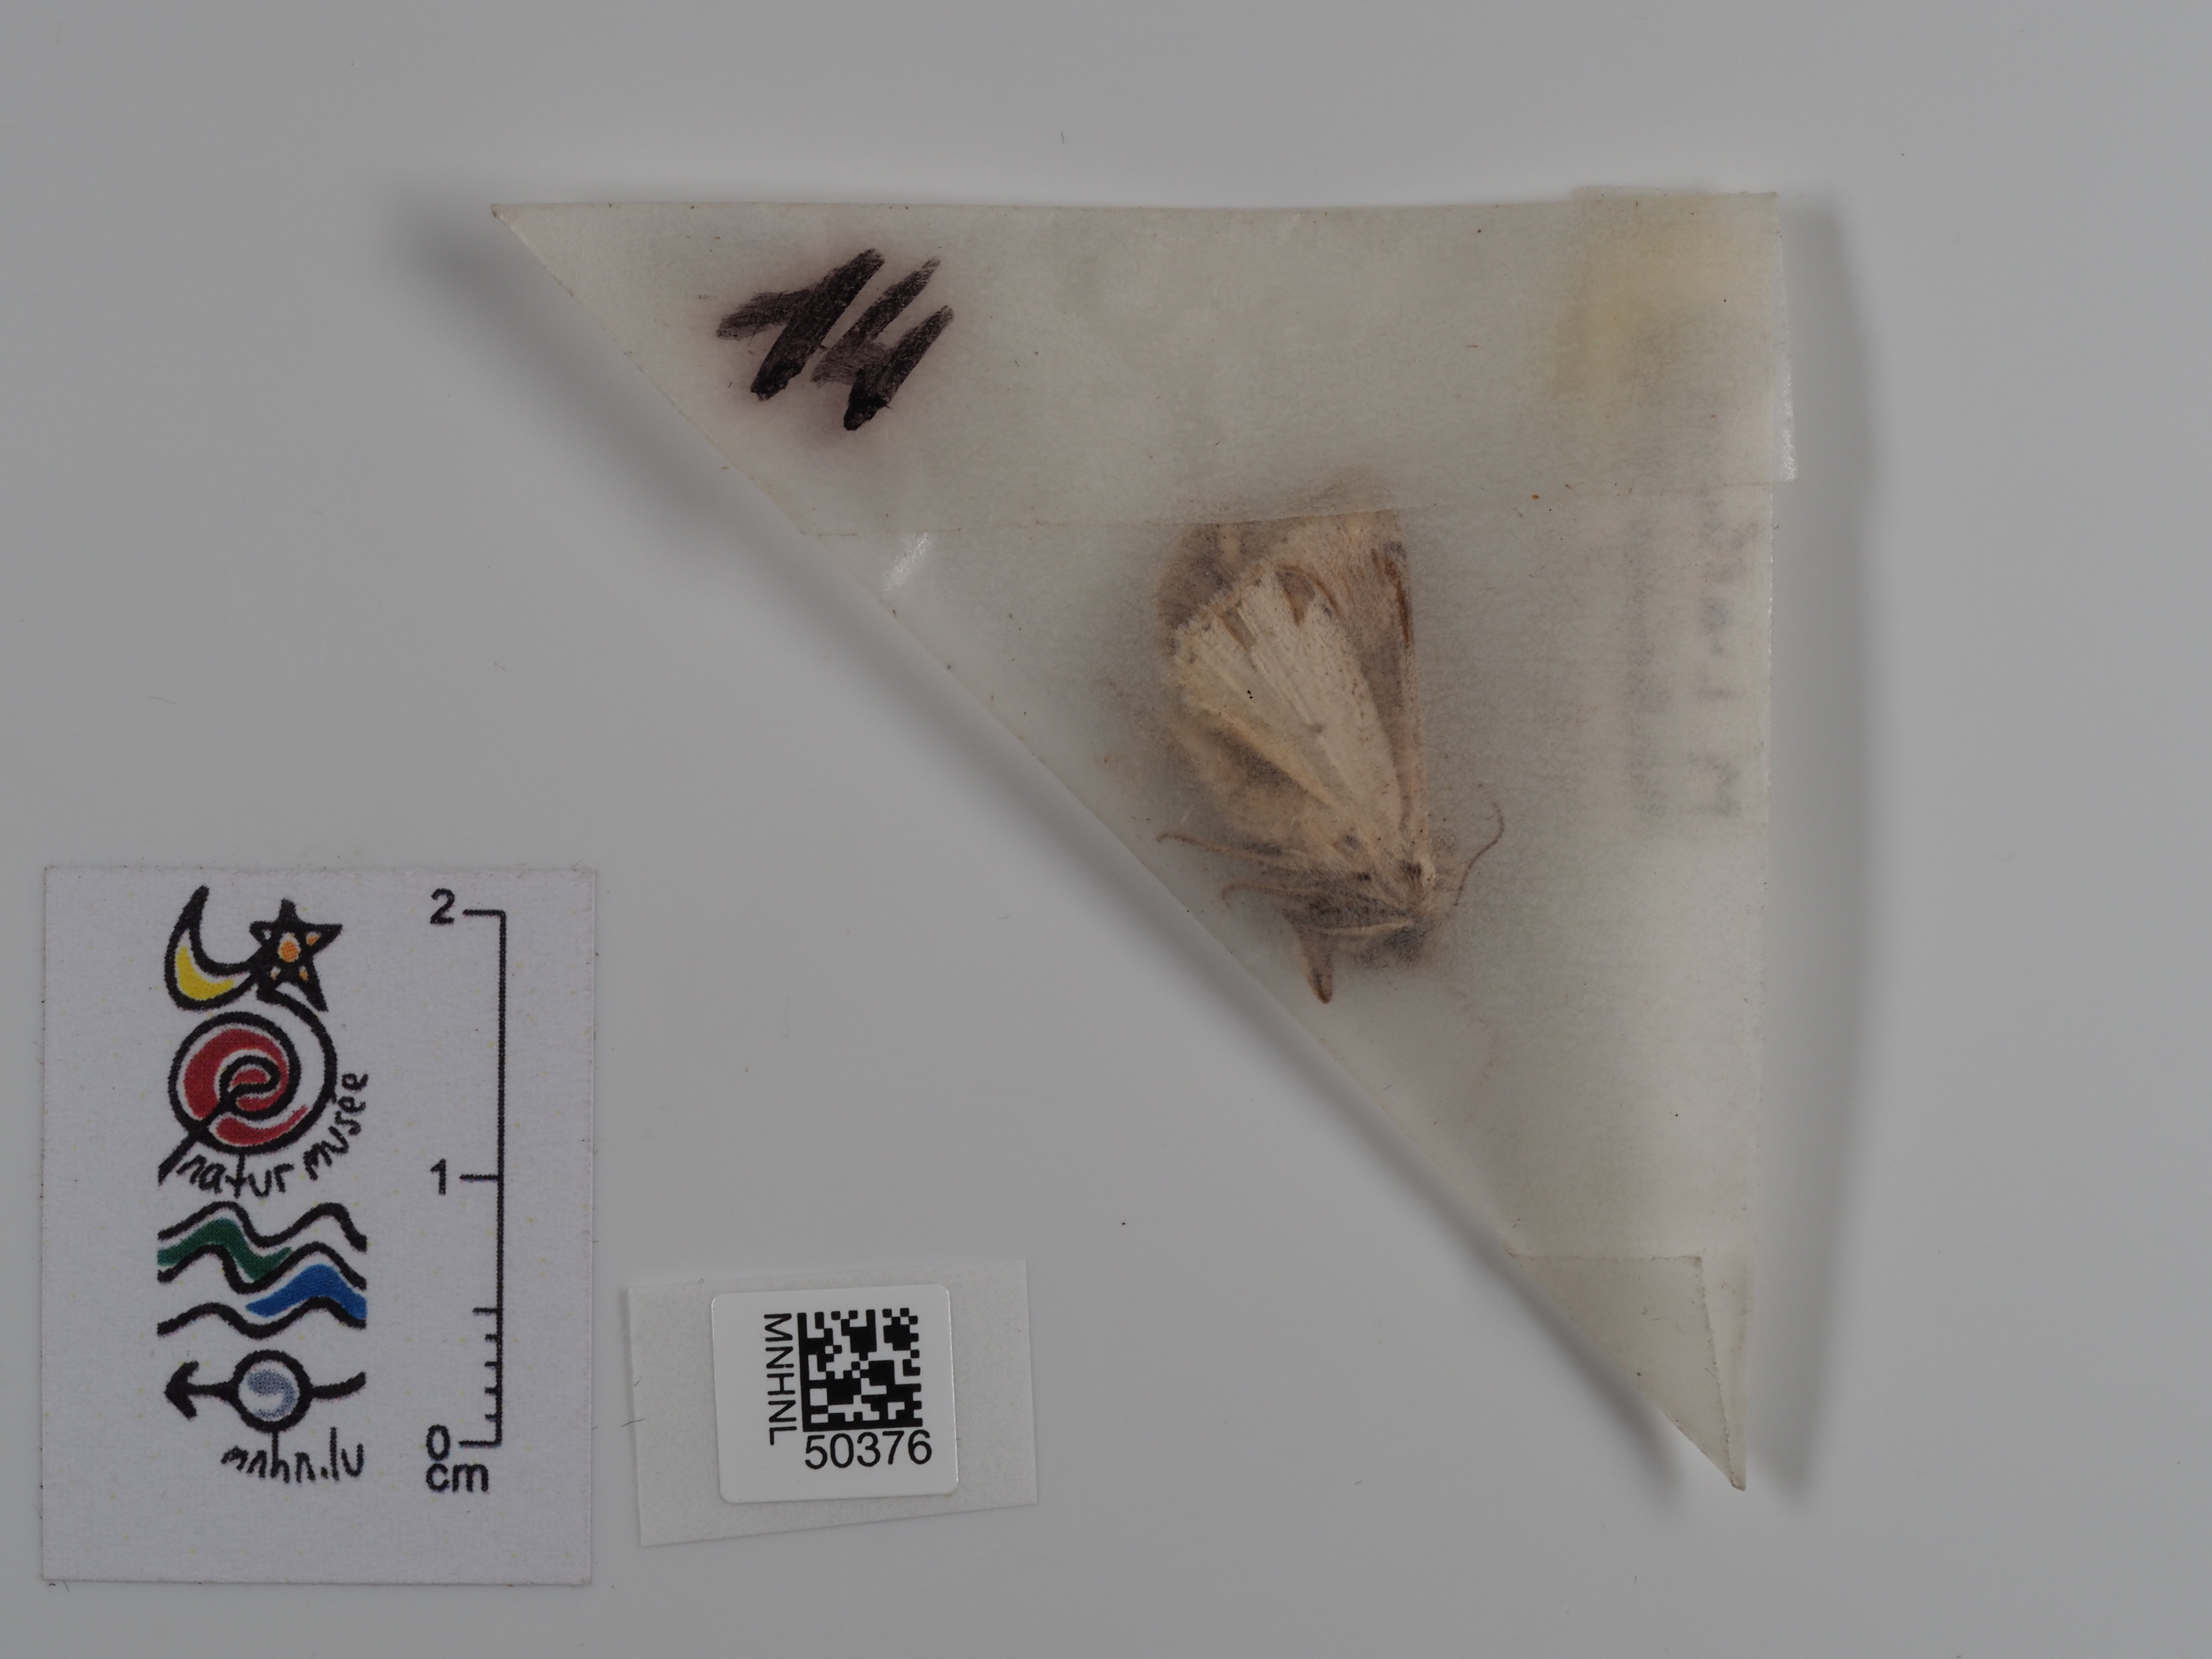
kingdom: Animalia
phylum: Arthropoda
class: Insecta
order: Lepidoptera
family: Noctuidae
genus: Mythimna
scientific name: Mythimna l-album
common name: L-album wainscot
